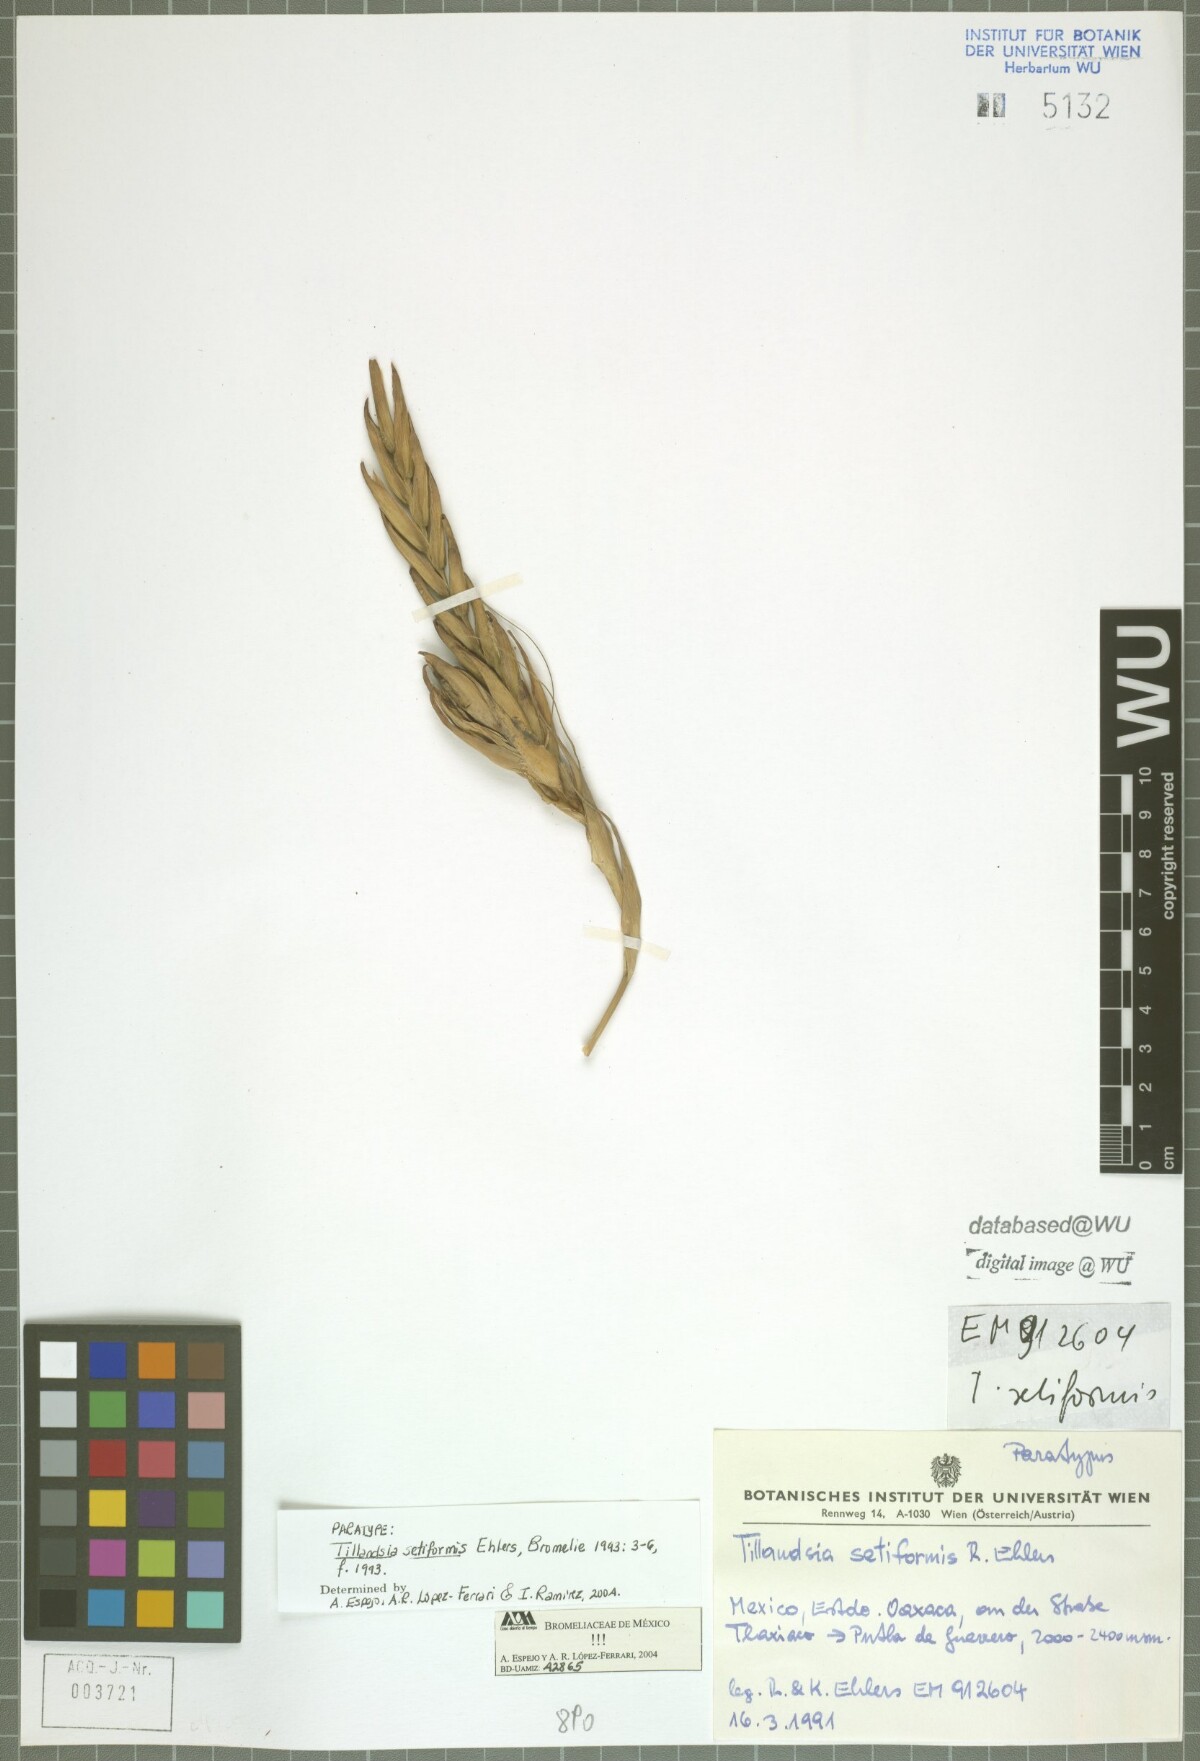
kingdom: Plantae
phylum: Tracheophyta
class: Liliopsida
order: Poales
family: Bromeliaceae
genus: Tillandsia
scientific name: Tillandsia setiformis
